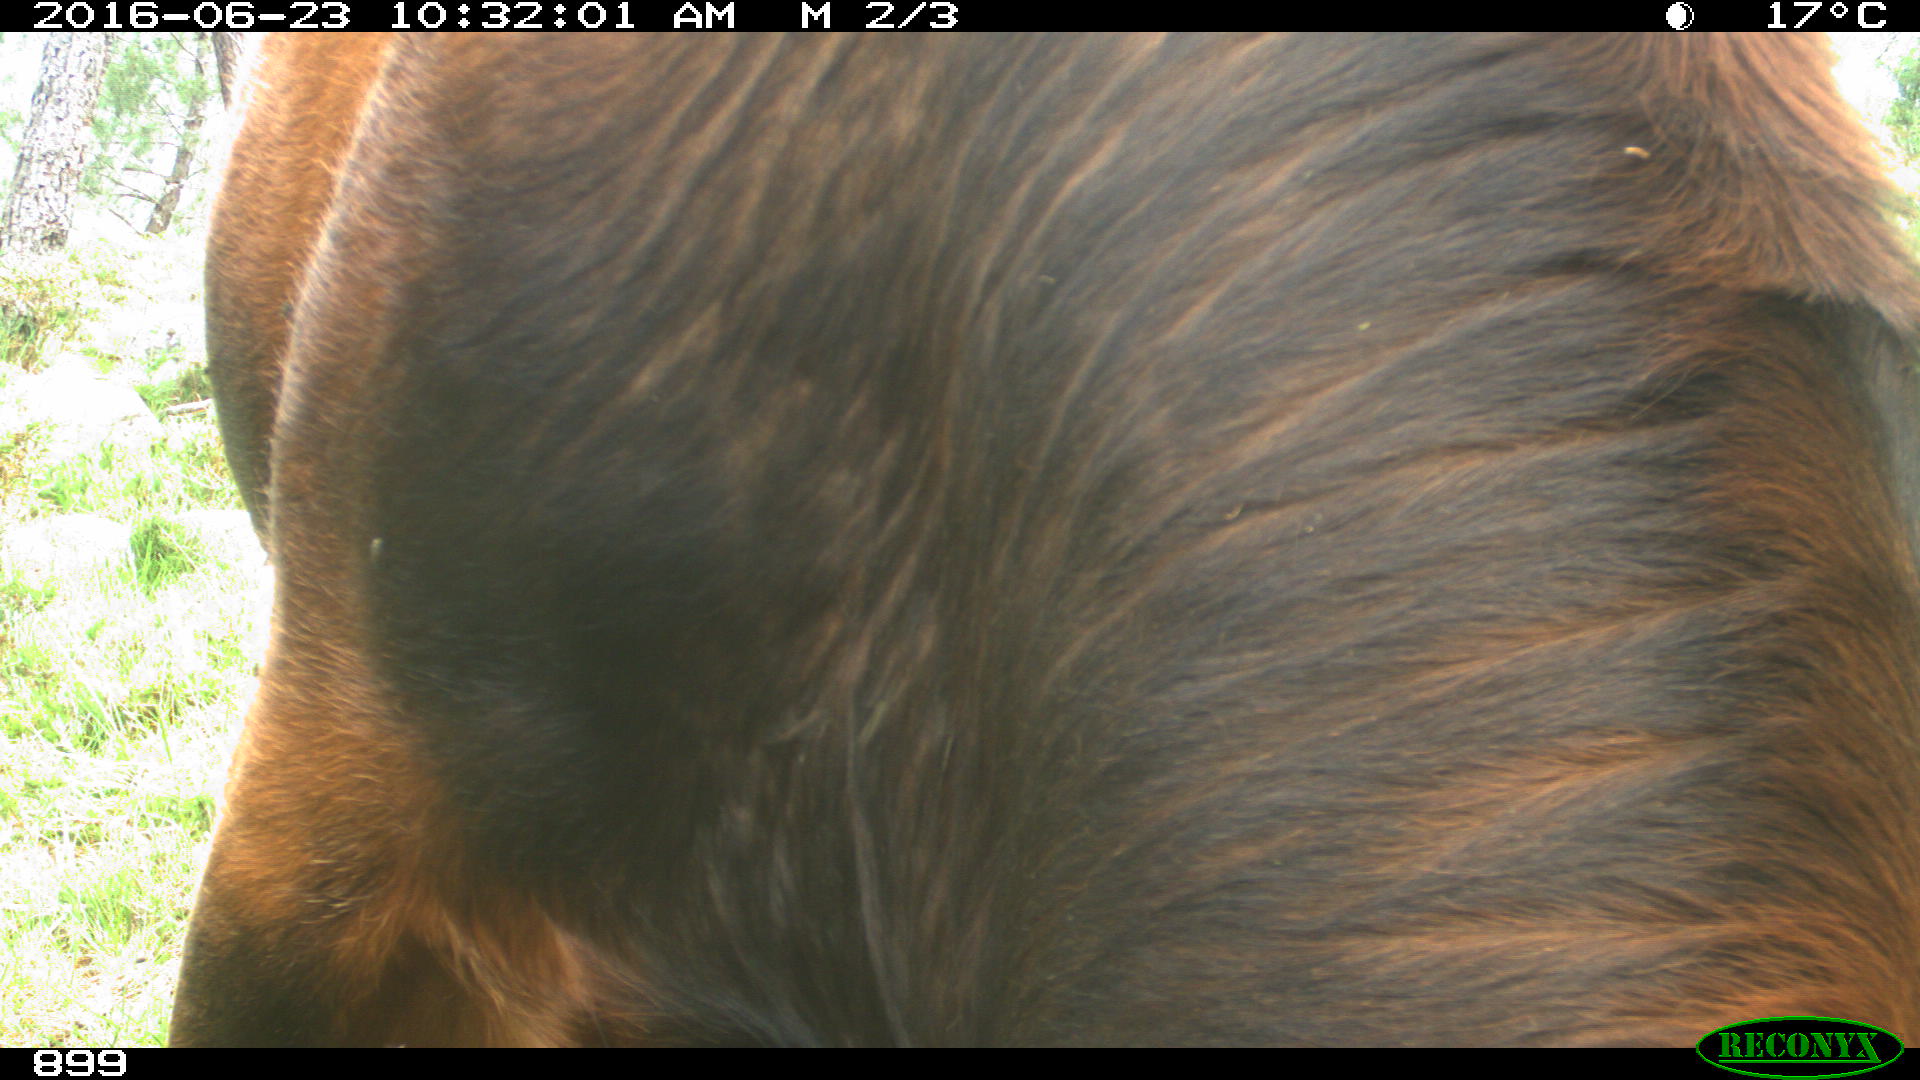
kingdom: Animalia
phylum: Chordata
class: Mammalia
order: Artiodactyla
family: Bovidae
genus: Bos
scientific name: Bos taurus
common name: Domesticated cattle
